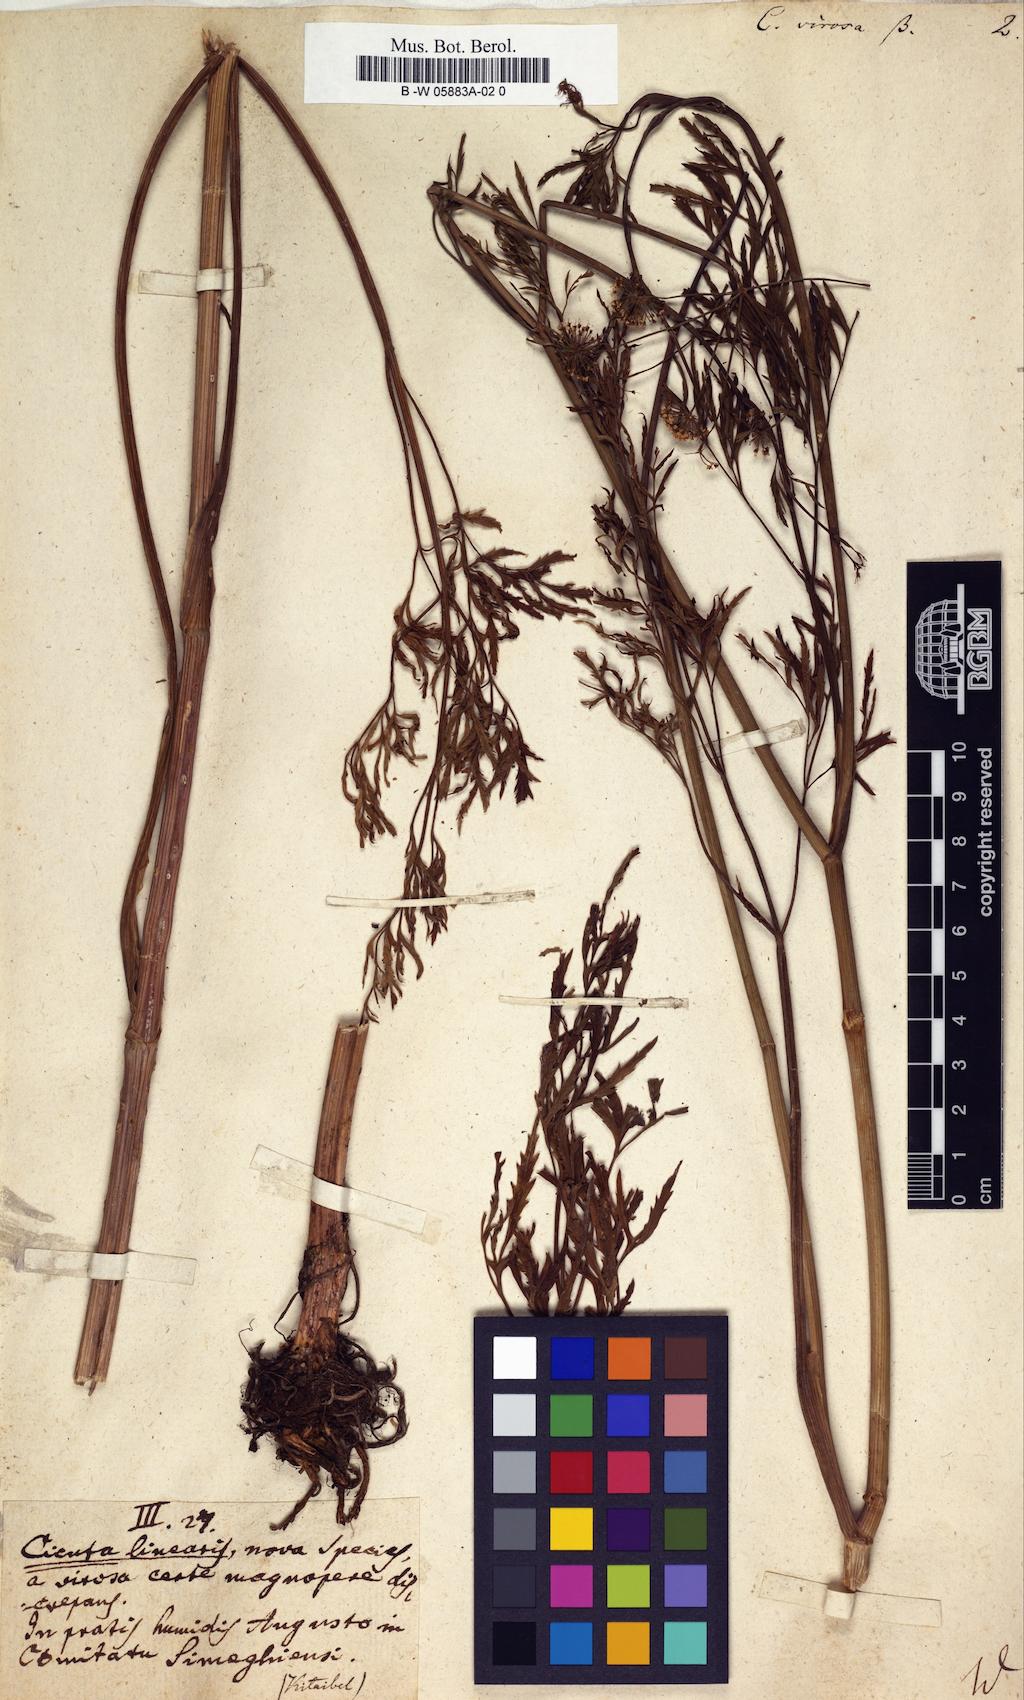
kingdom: Plantae
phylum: Tracheophyta
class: Magnoliopsida
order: Apiales
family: Apiaceae
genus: Cicuta
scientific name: Cicuta virosa
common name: Cowbane
